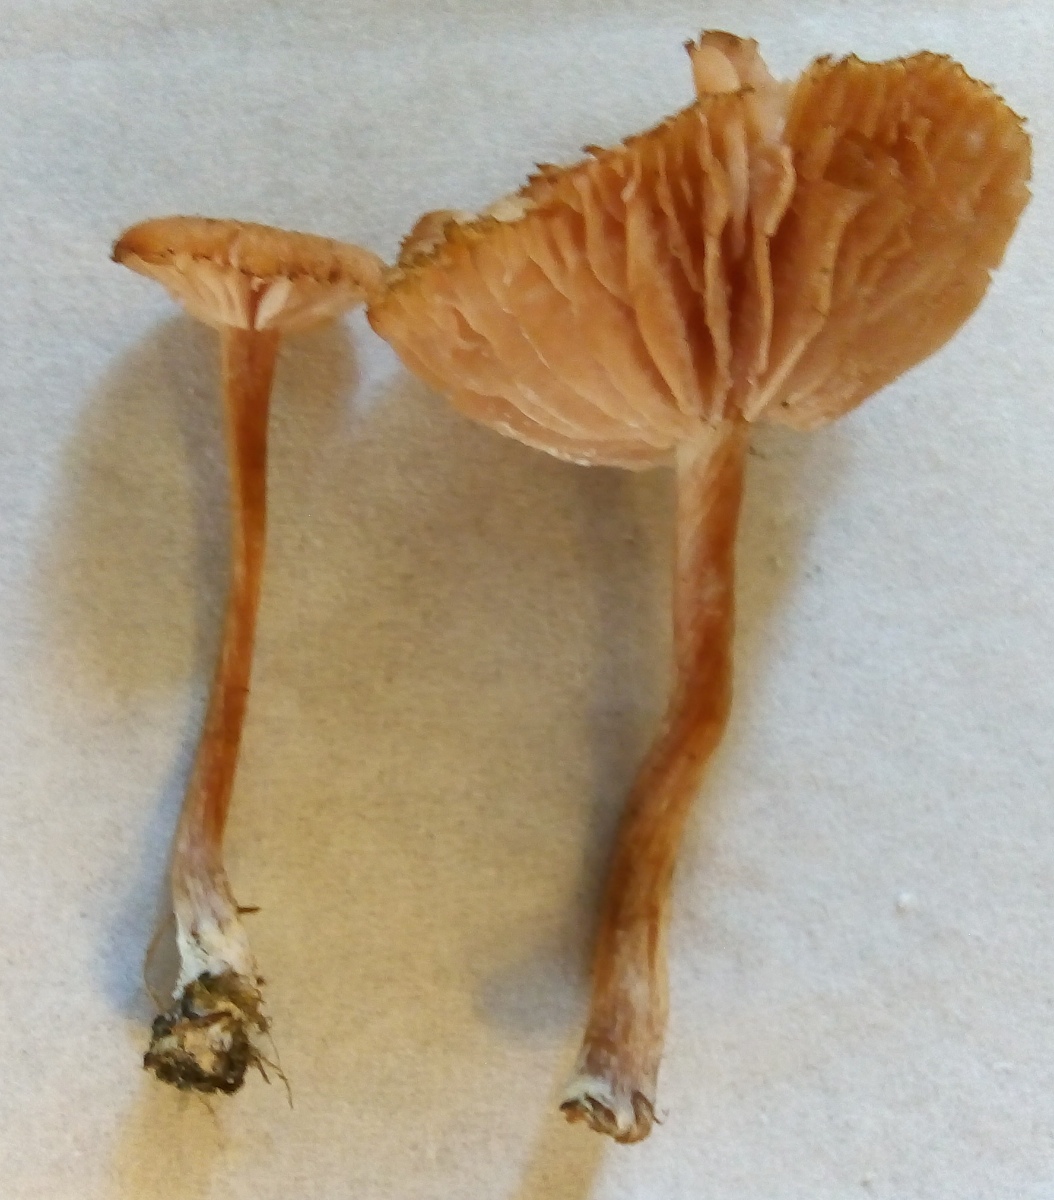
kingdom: Fungi
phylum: Basidiomycota
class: Agaricomycetes
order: Agaricales
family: Hydnangiaceae
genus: Laccaria
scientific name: Laccaria laccata
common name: rød ametysthat
